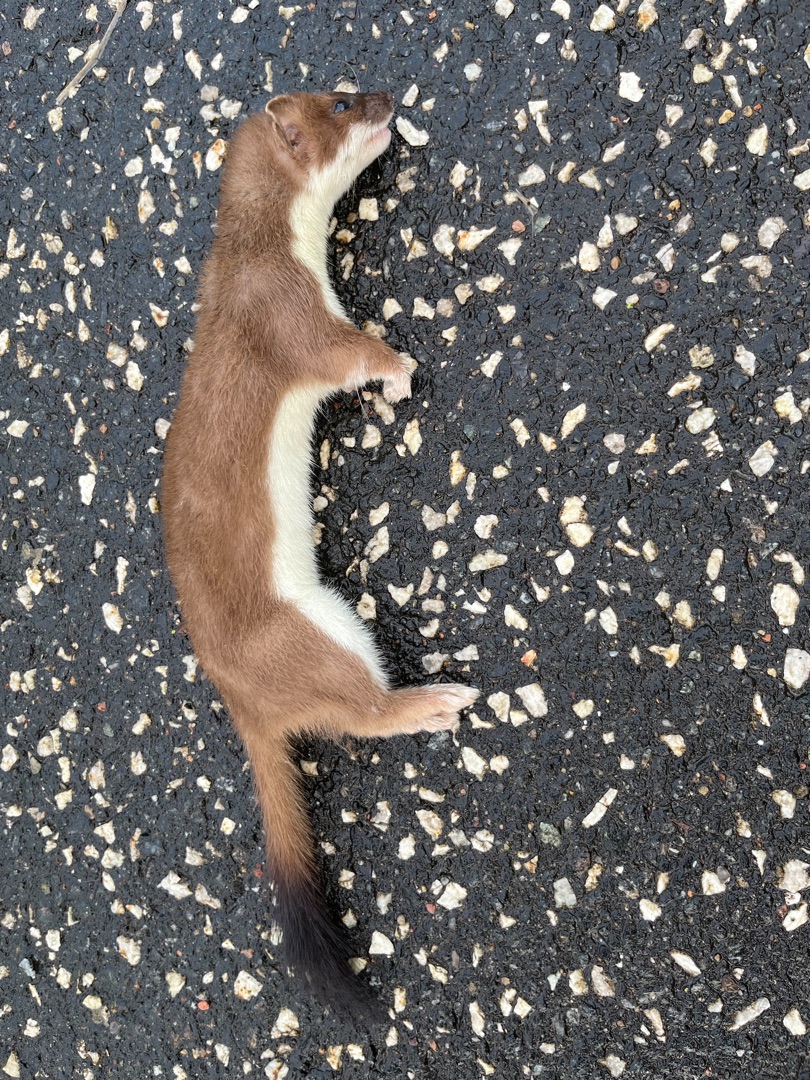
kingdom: Animalia
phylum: Chordata
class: Mammalia
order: Carnivora
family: Mustelidae
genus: Mustela
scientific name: Mustela erminea
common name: Lækat
